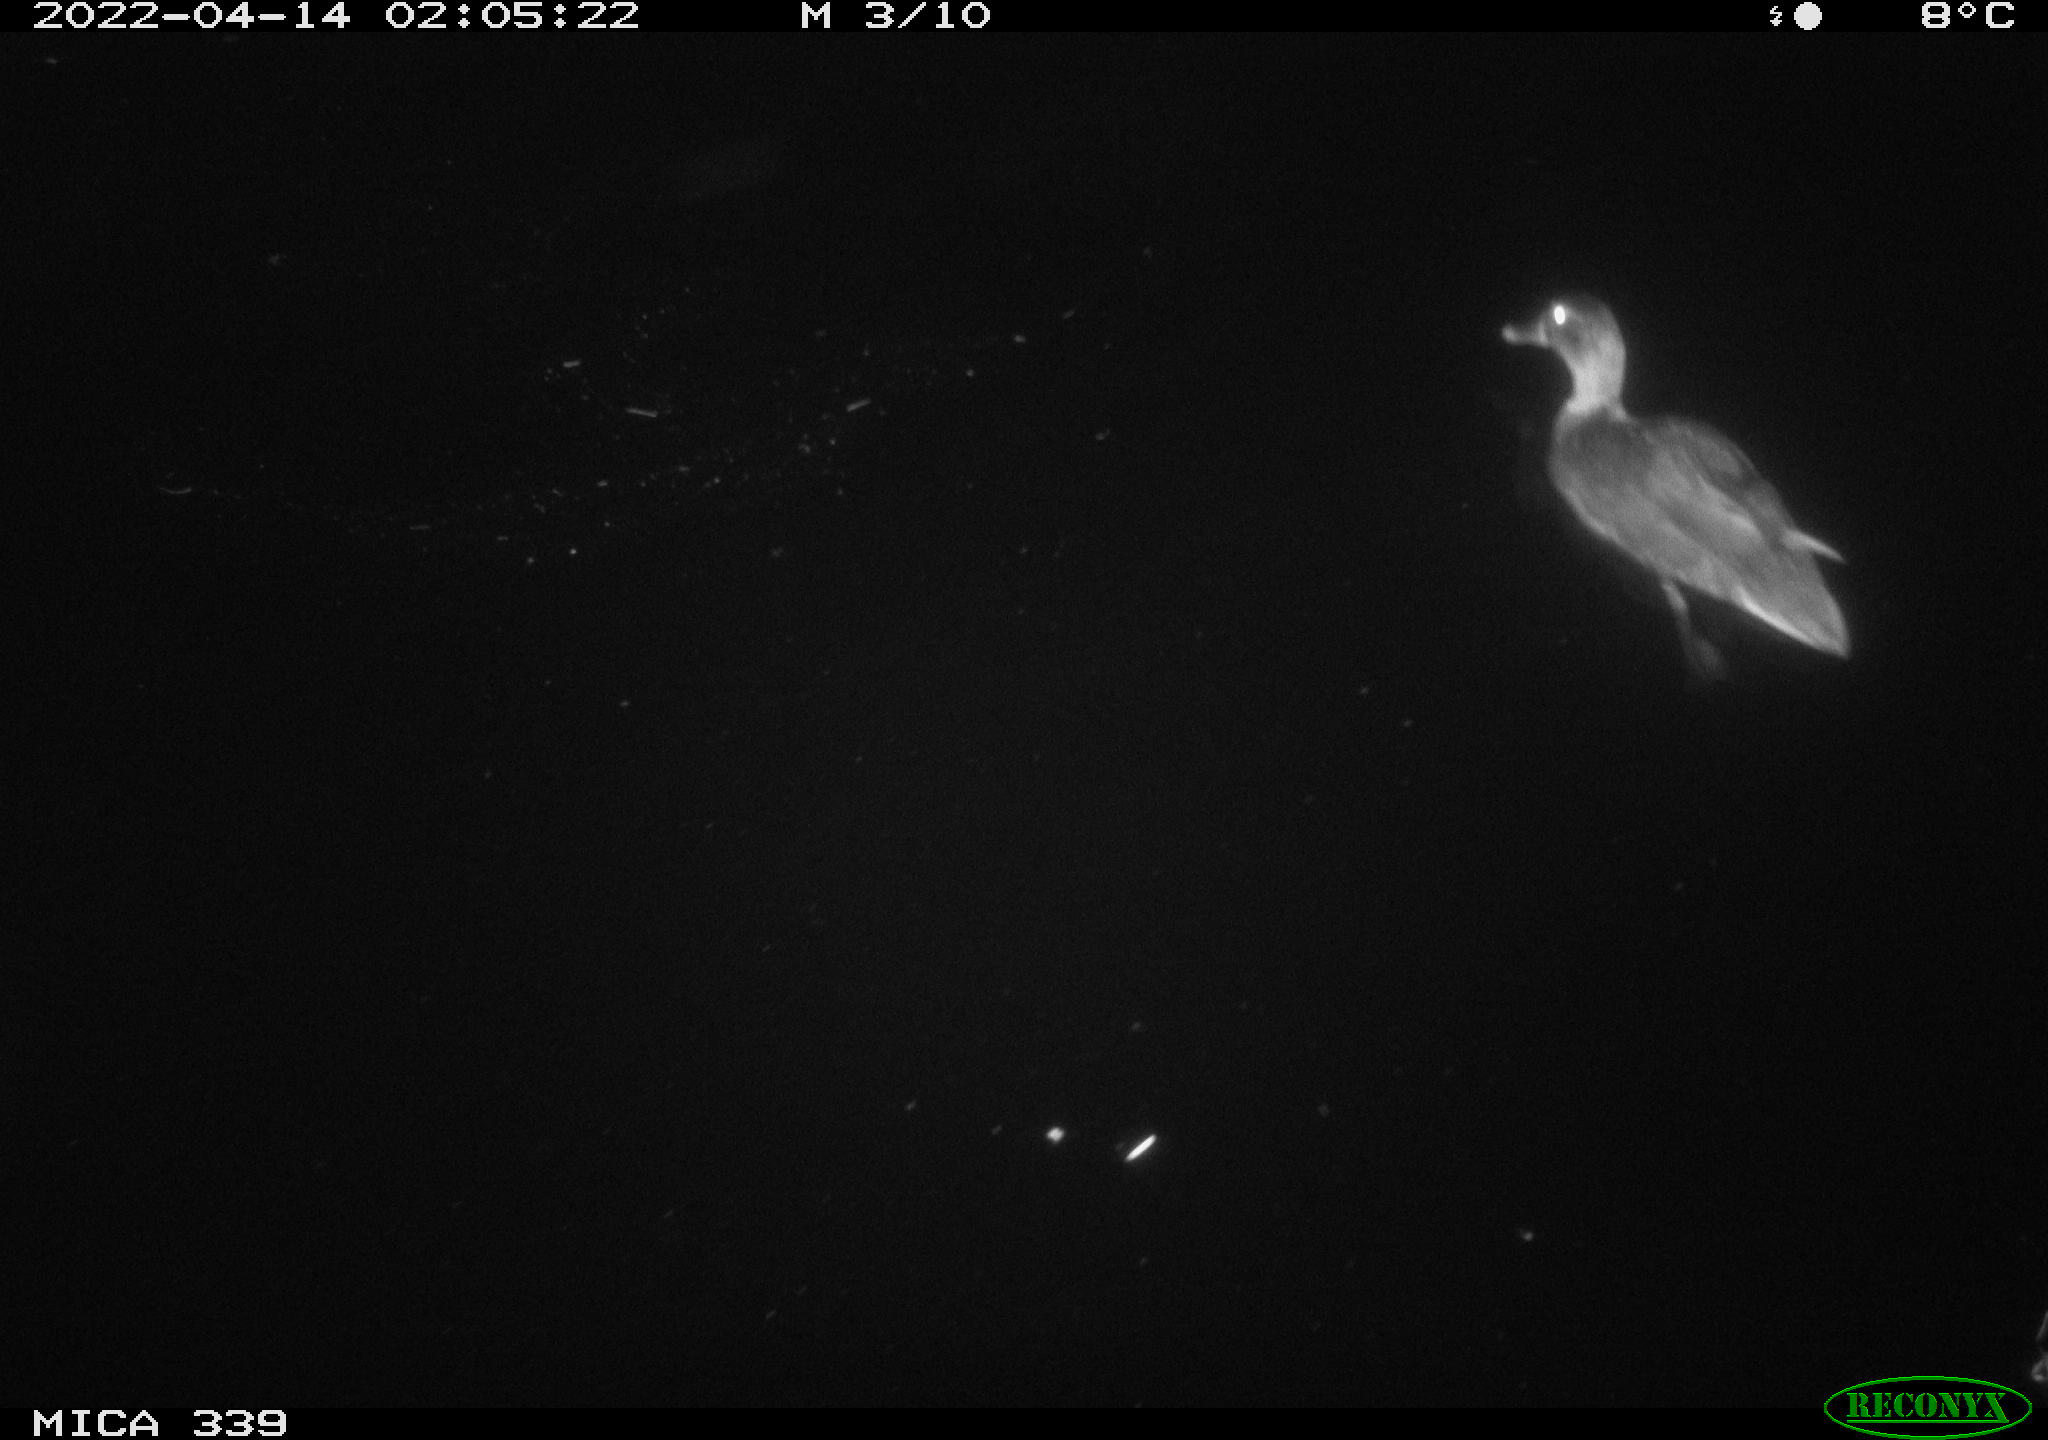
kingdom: Animalia
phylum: Chordata
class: Aves
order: Anseriformes
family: Anatidae
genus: Anas
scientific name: Anas platyrhynchos
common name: Mallard
